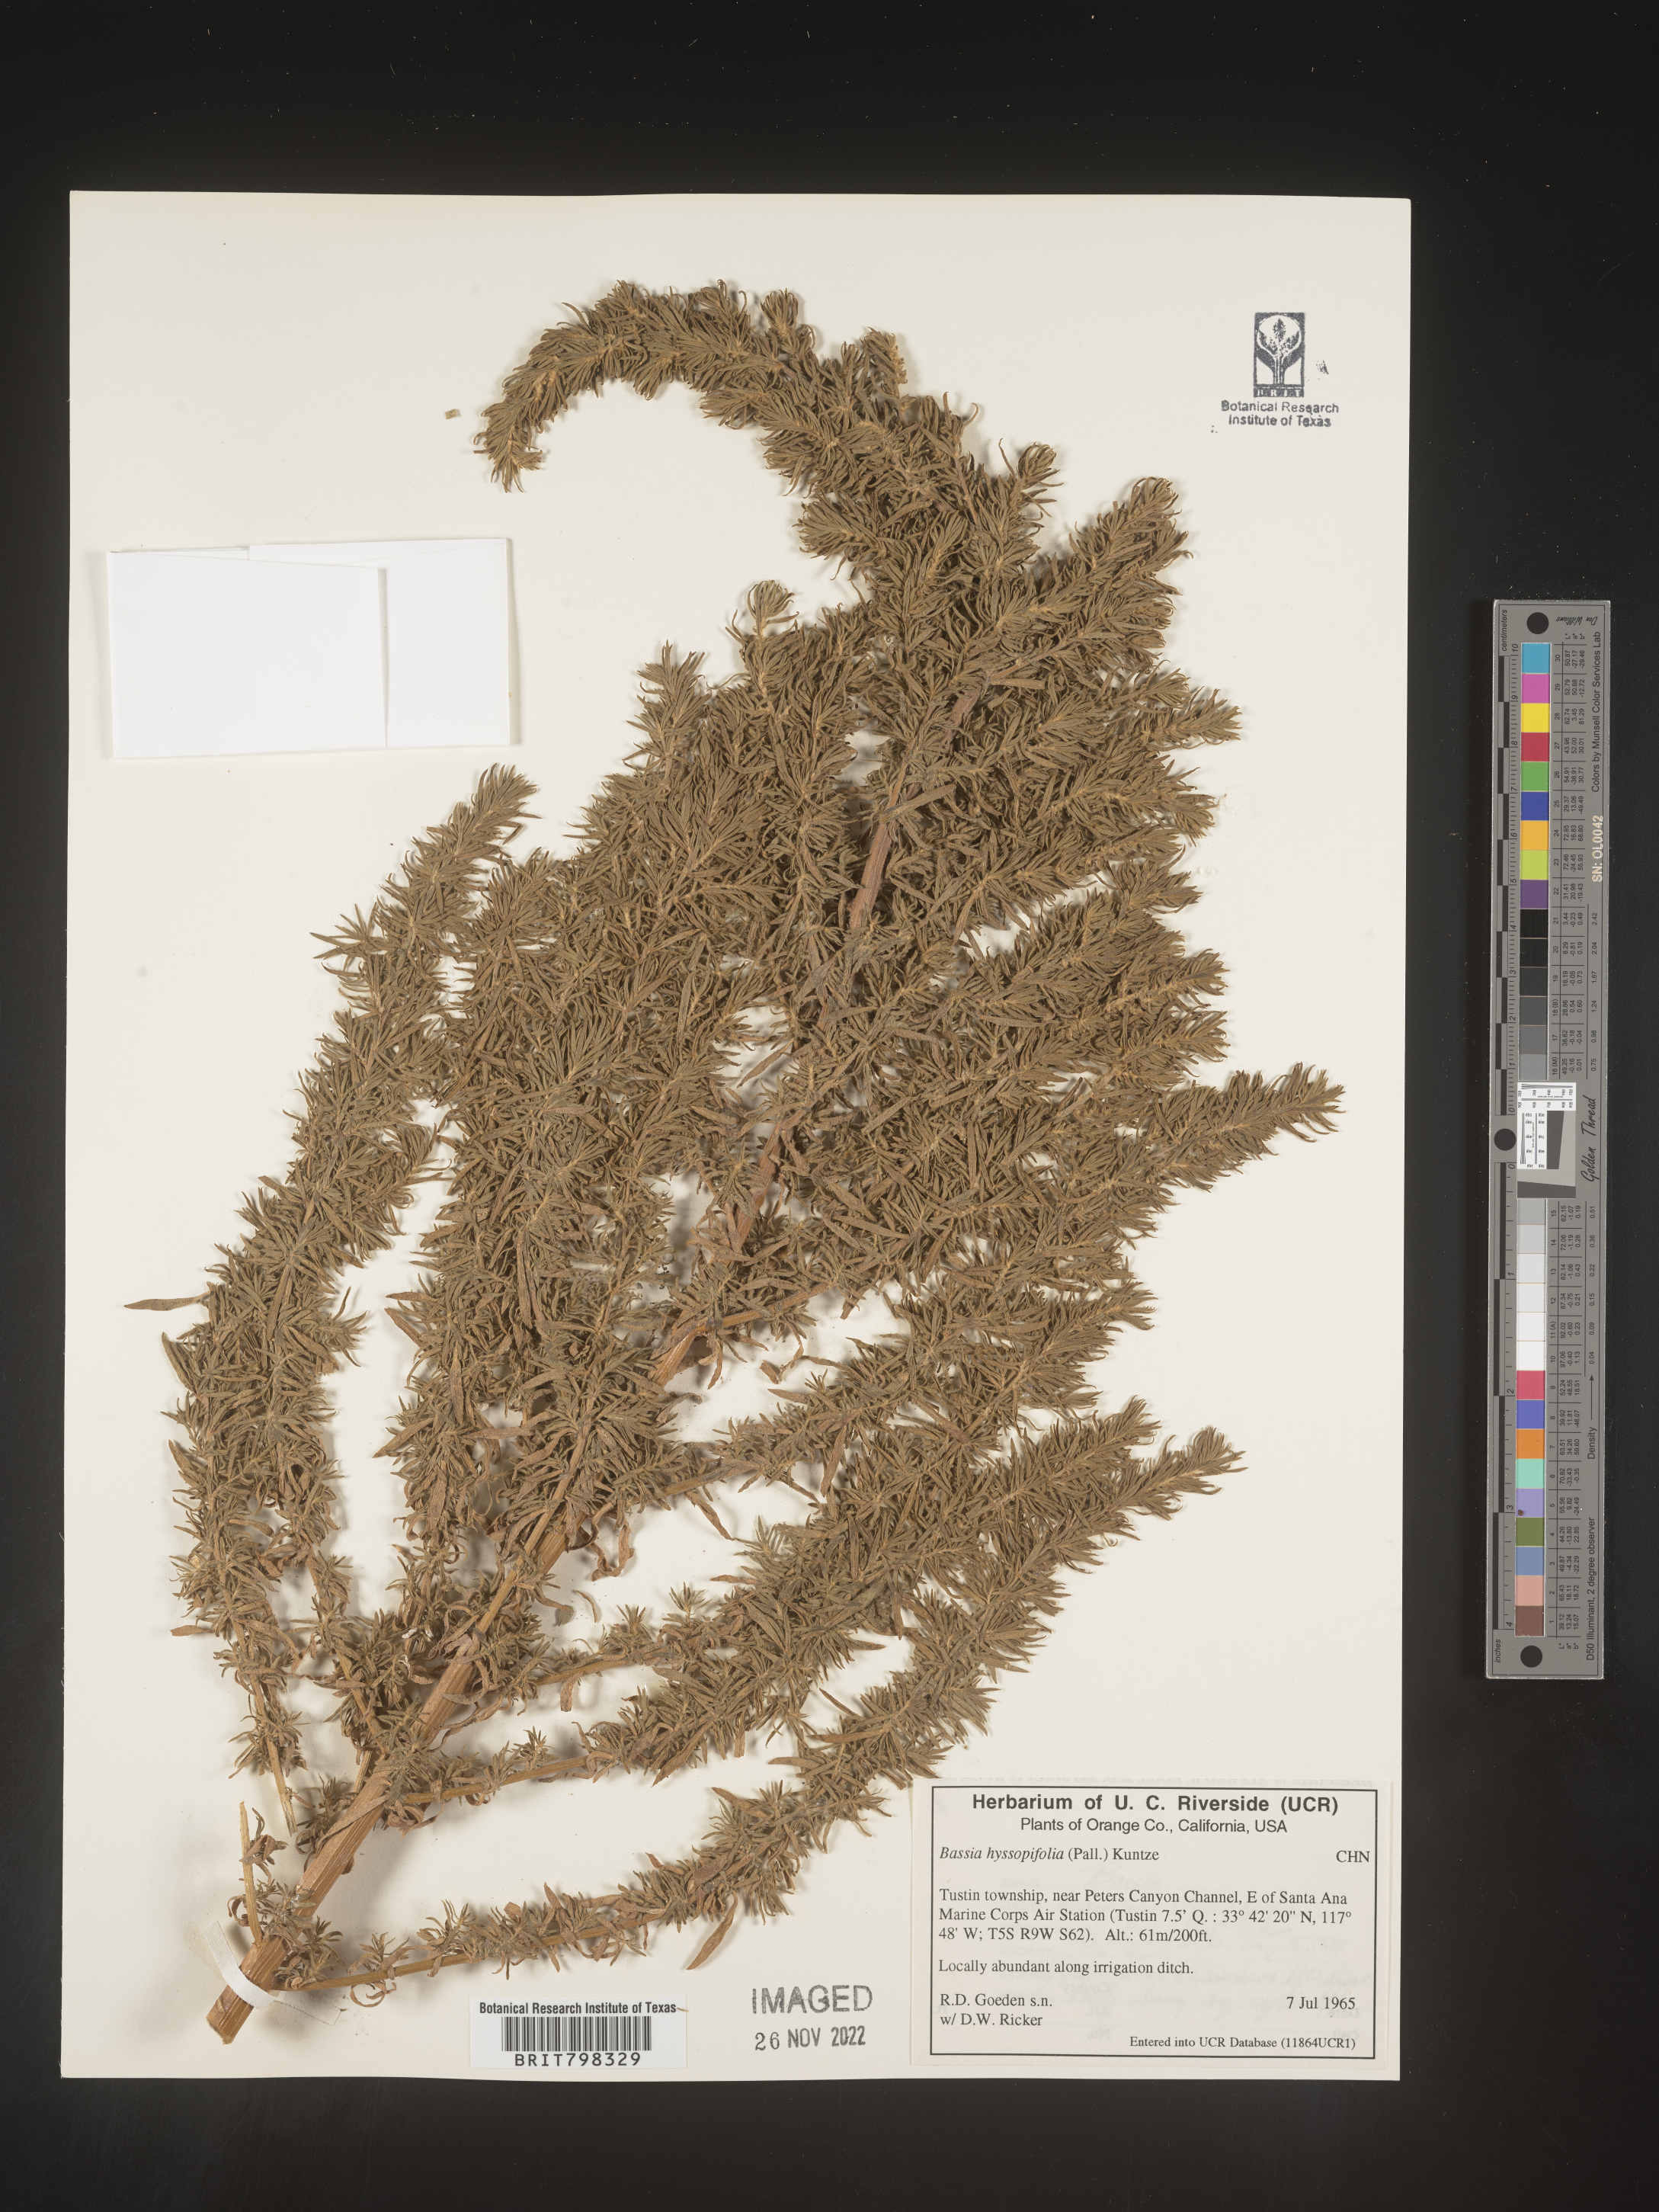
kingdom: Plantae
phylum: Tracheophyta
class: Magnoliopsida
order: Caryophyllales
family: Amaranthaceae
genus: Bassia
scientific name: Bassia hyssopifolia
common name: Fivehorn smotherweed
